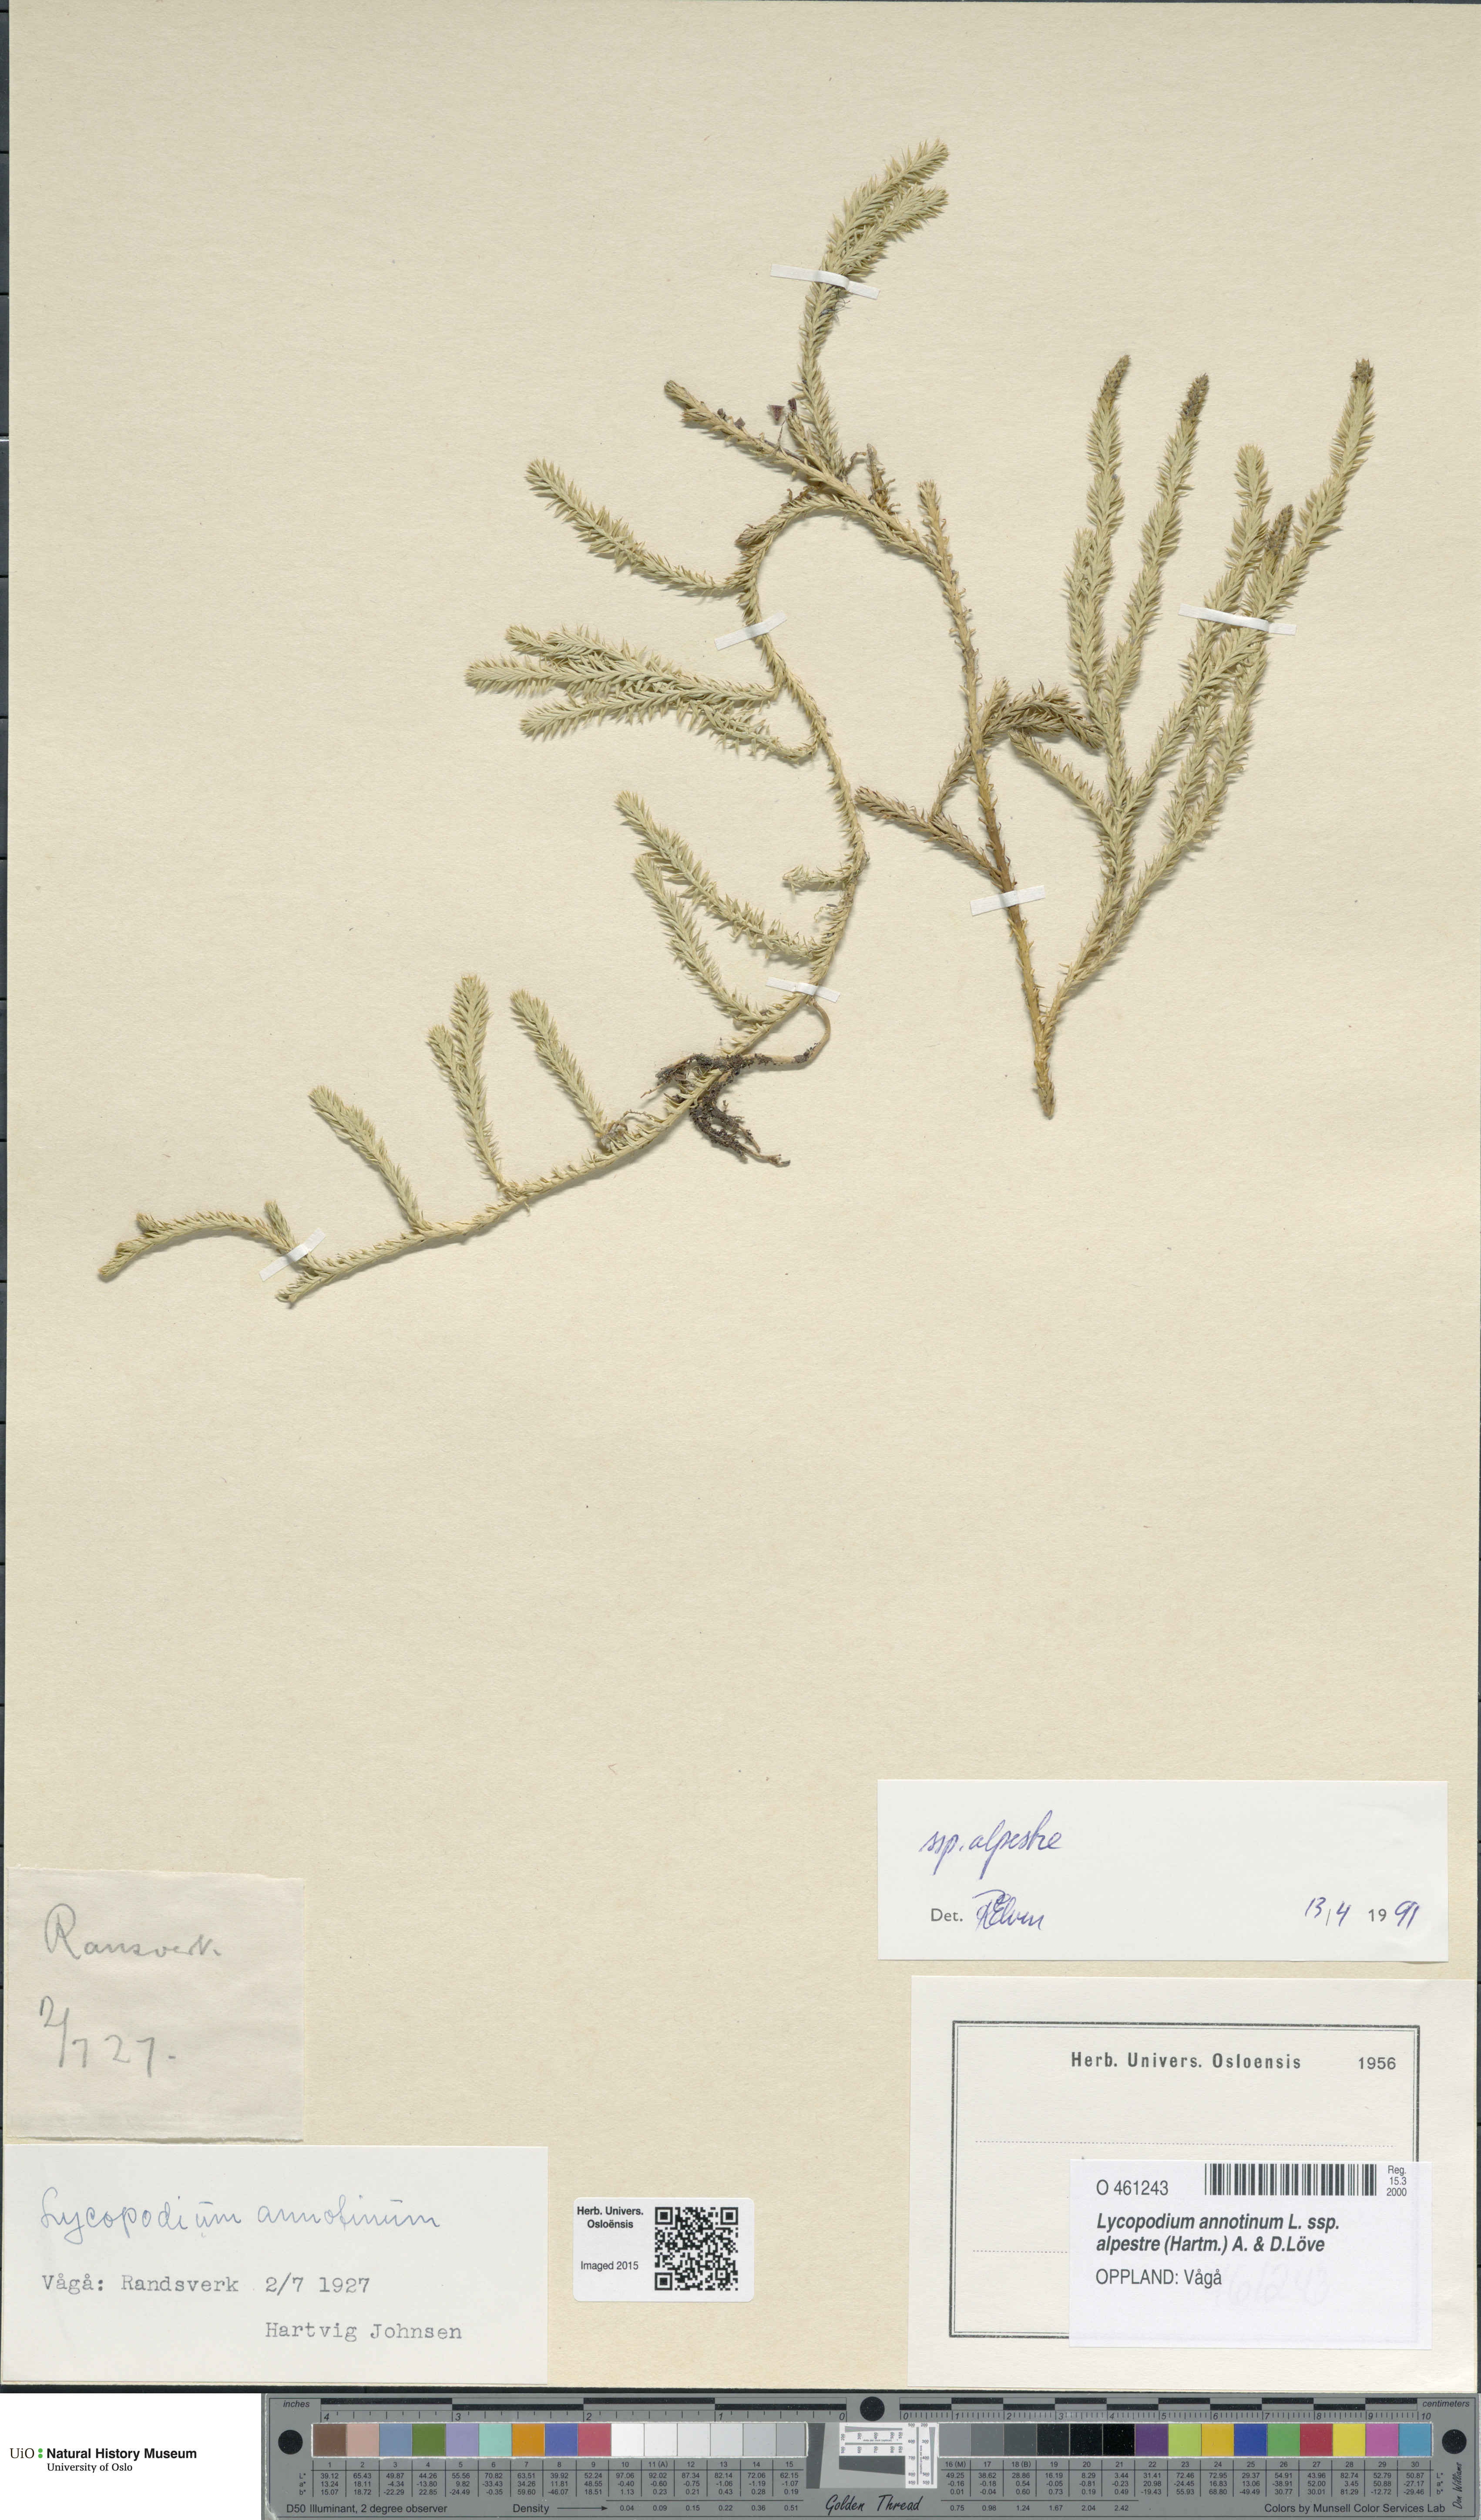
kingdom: Plantae
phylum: Tracheophyta
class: Lycopodiopsida
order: Lycopodiales
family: Lycopodiaceae
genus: Spinulum
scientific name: Spinulum annotinum
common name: Interrupted club-moss
